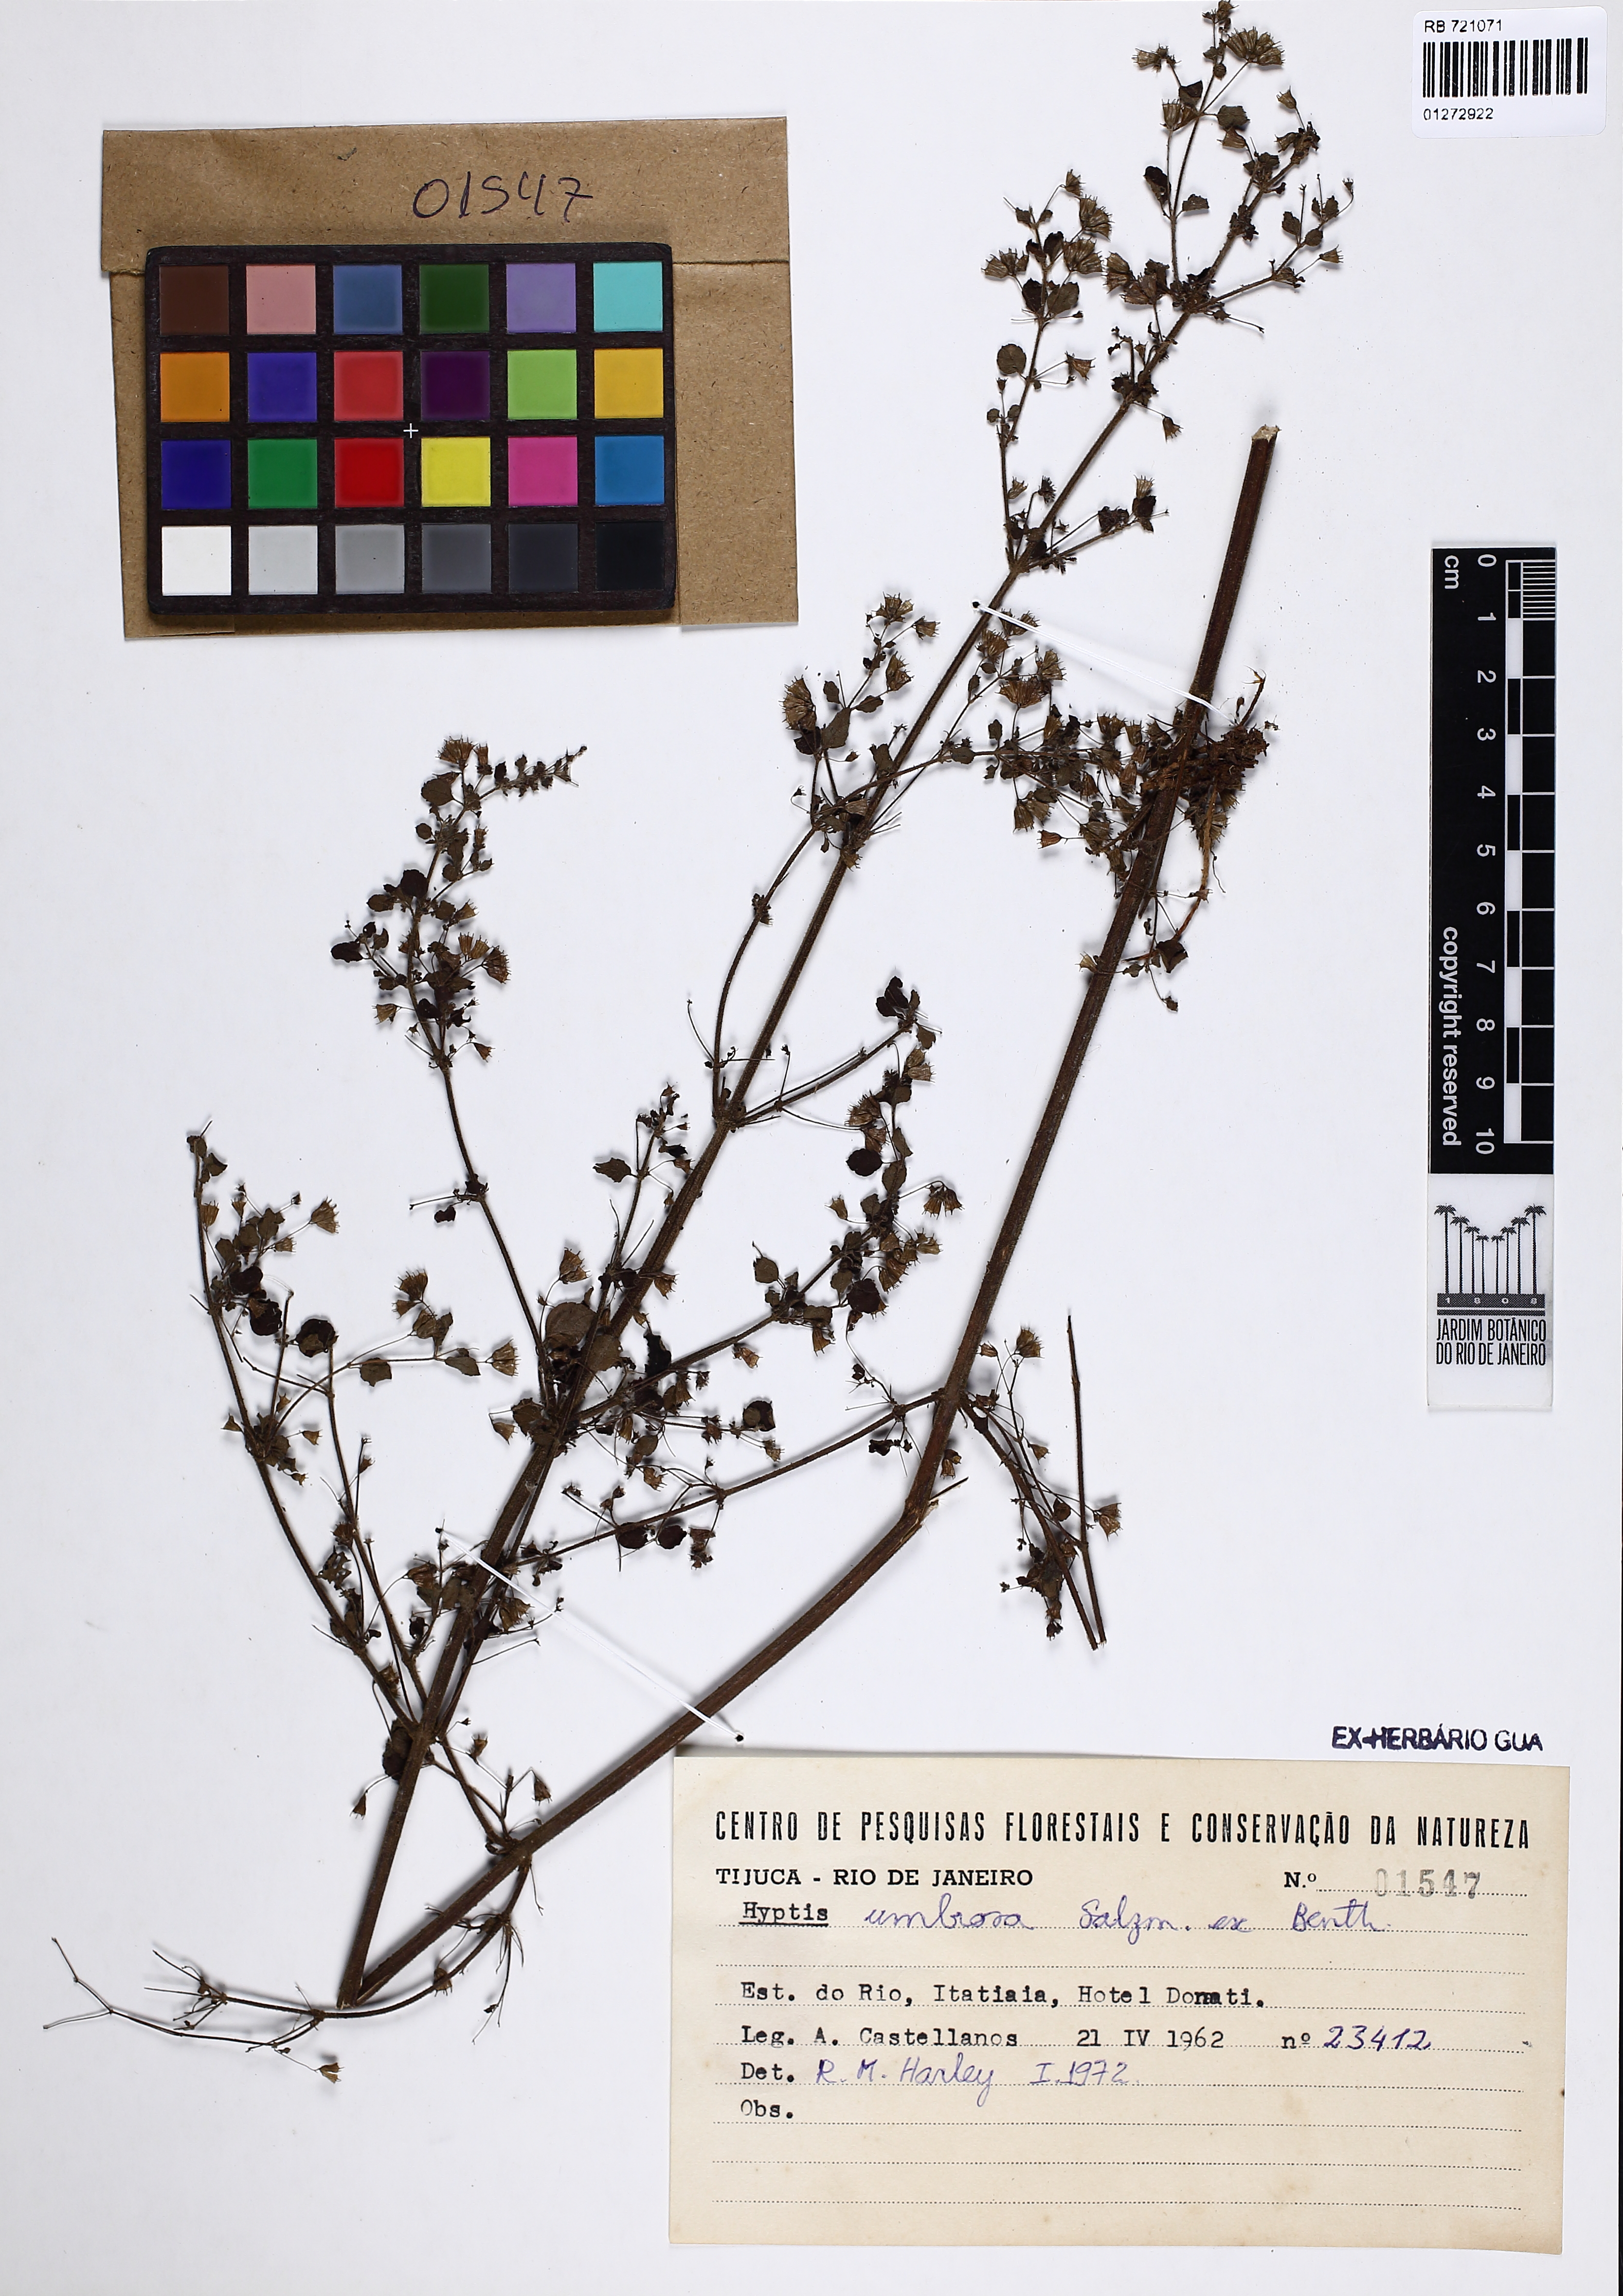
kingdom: Plantae
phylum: Tracheophyta
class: Magnoliopsida
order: Lamiales
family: Lamiaceae
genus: Mesosphaerum
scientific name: Mesosphaerum sidifolium
